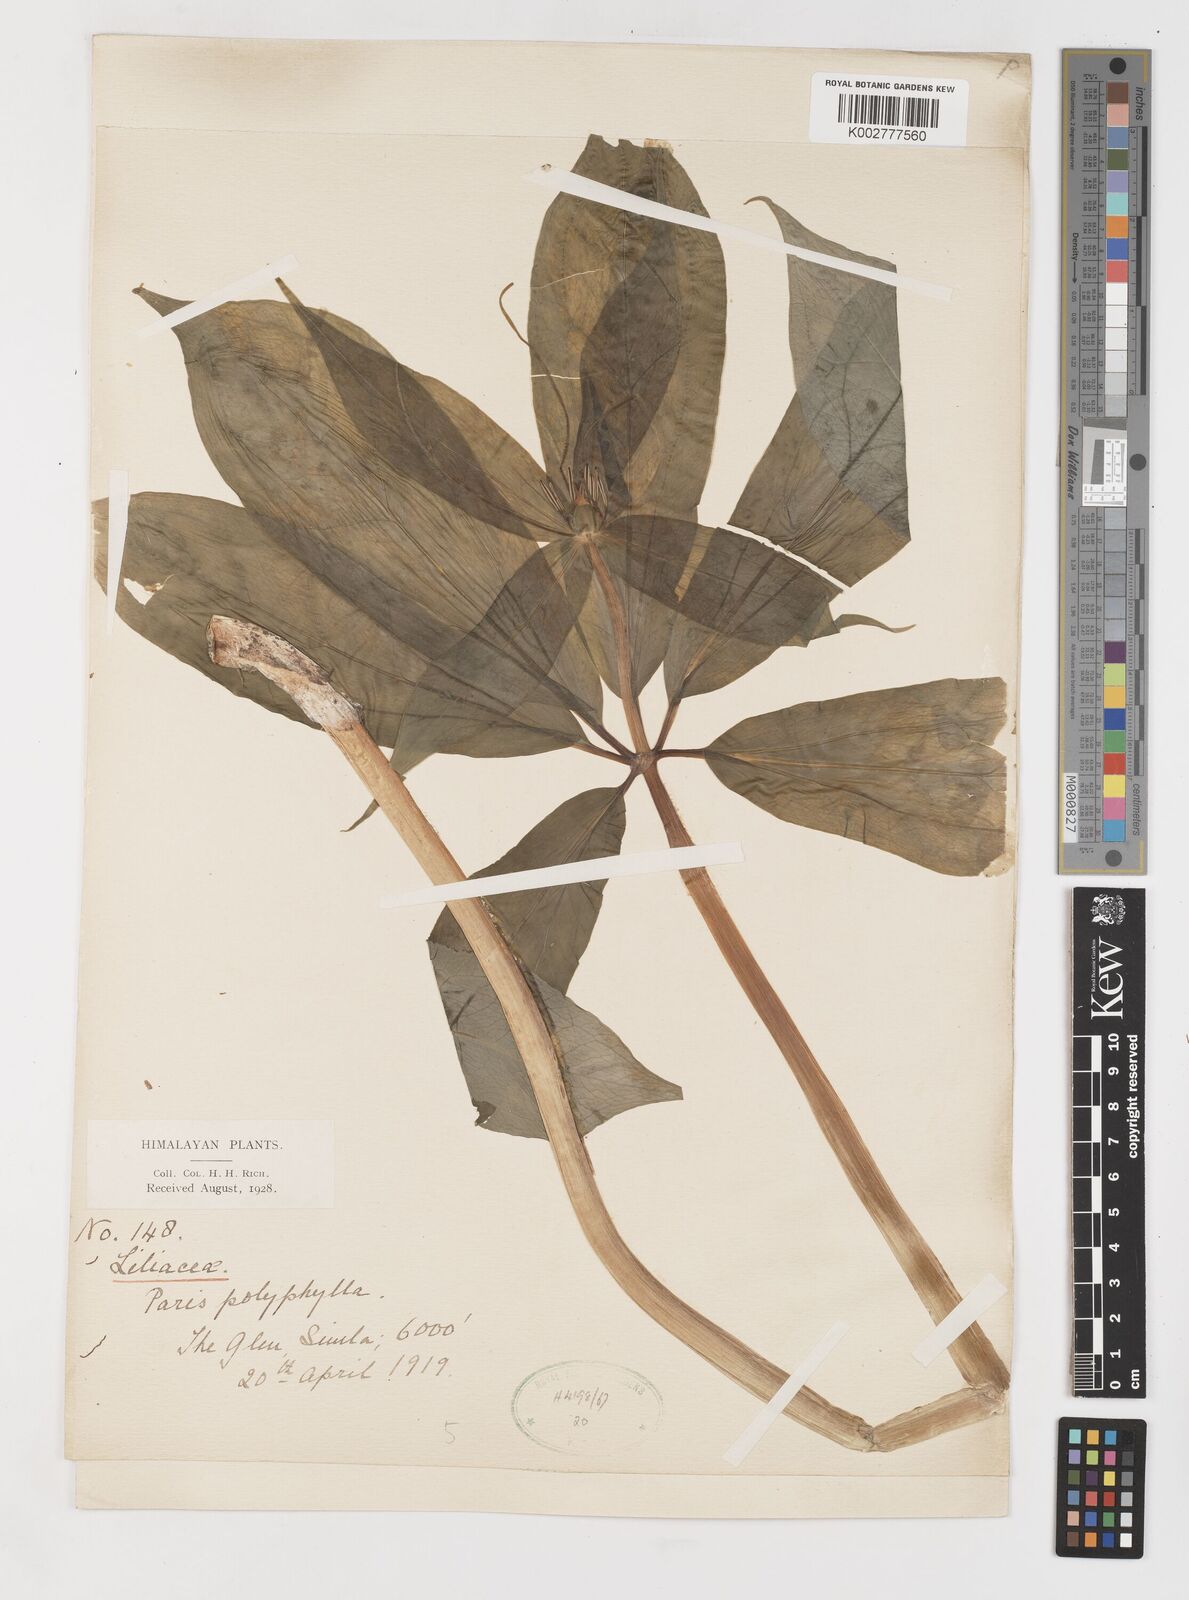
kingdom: Plantae
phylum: Tracheophyta
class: Liliopsida
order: Liliales
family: Melanthiaceae
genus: Paris
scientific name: Paris polyphylla
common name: Love apple
